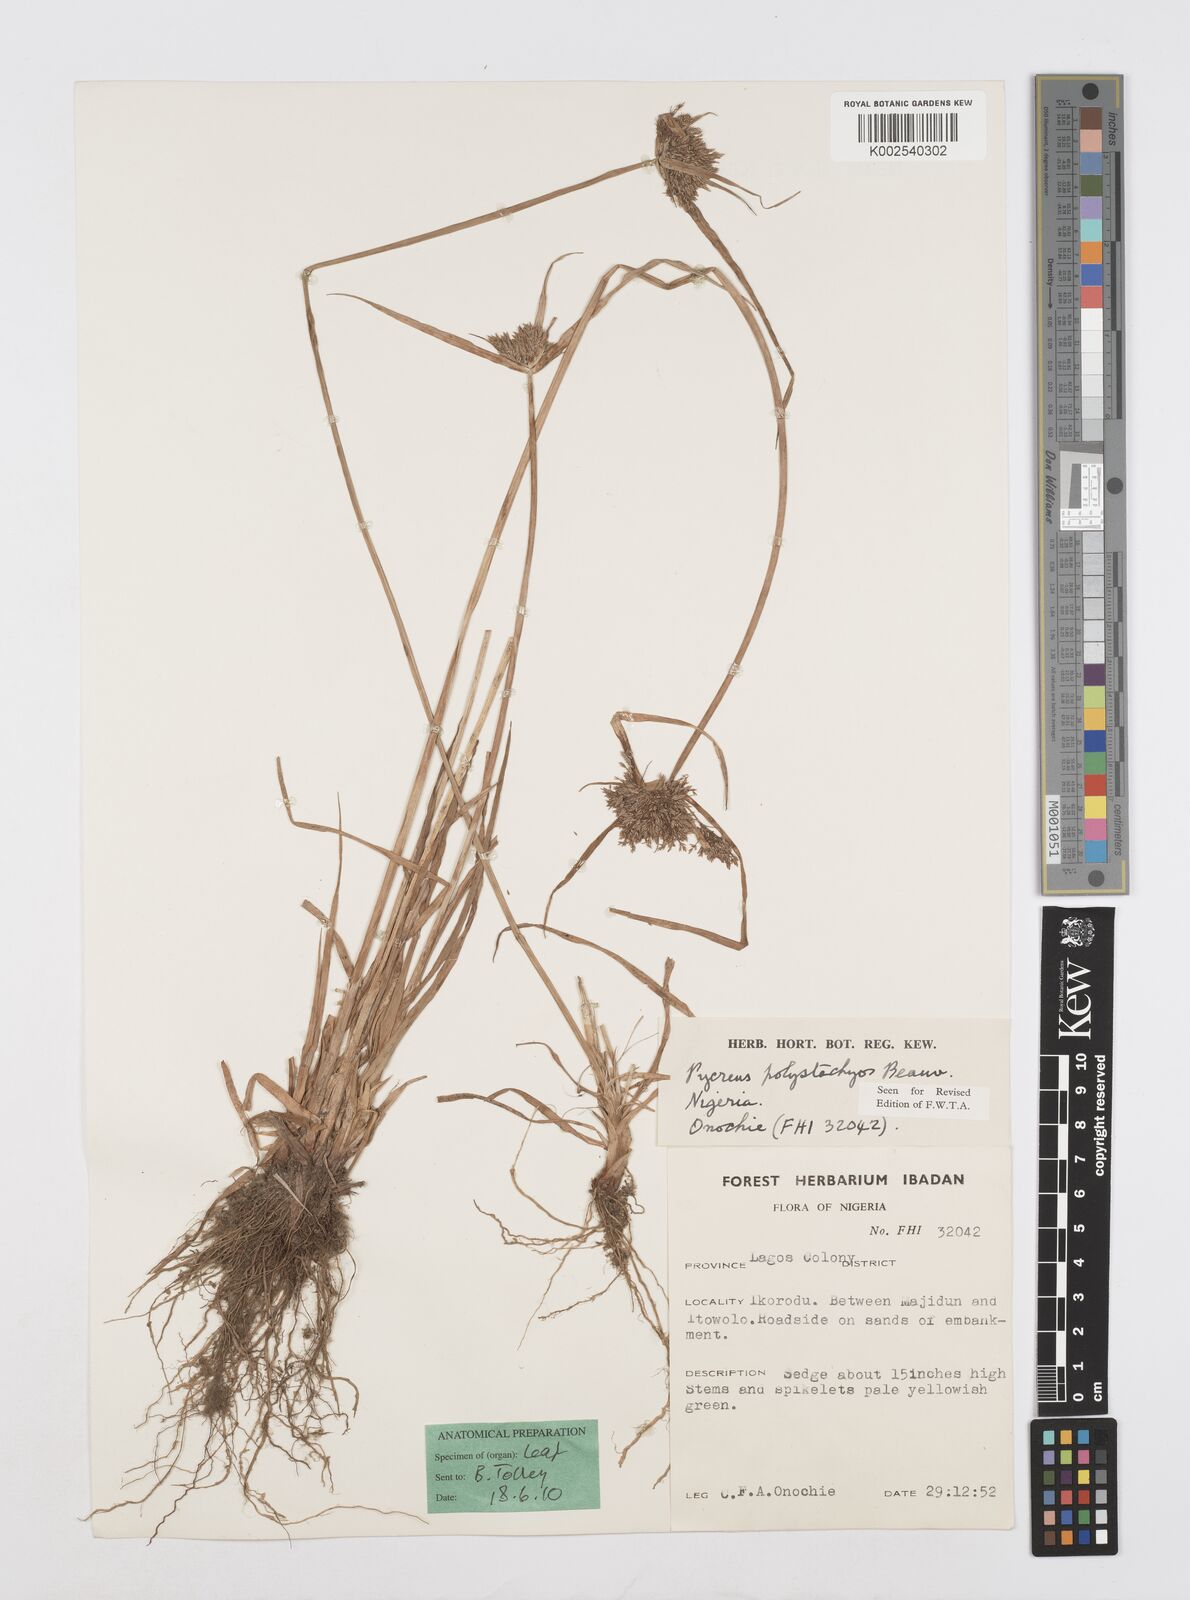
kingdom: Plantae
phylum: Tracheophyta
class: Liliopsida
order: Poales
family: Cyperaceae
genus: Cyperus
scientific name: Cyperus polystachyos
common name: Bunchy flat sedge
